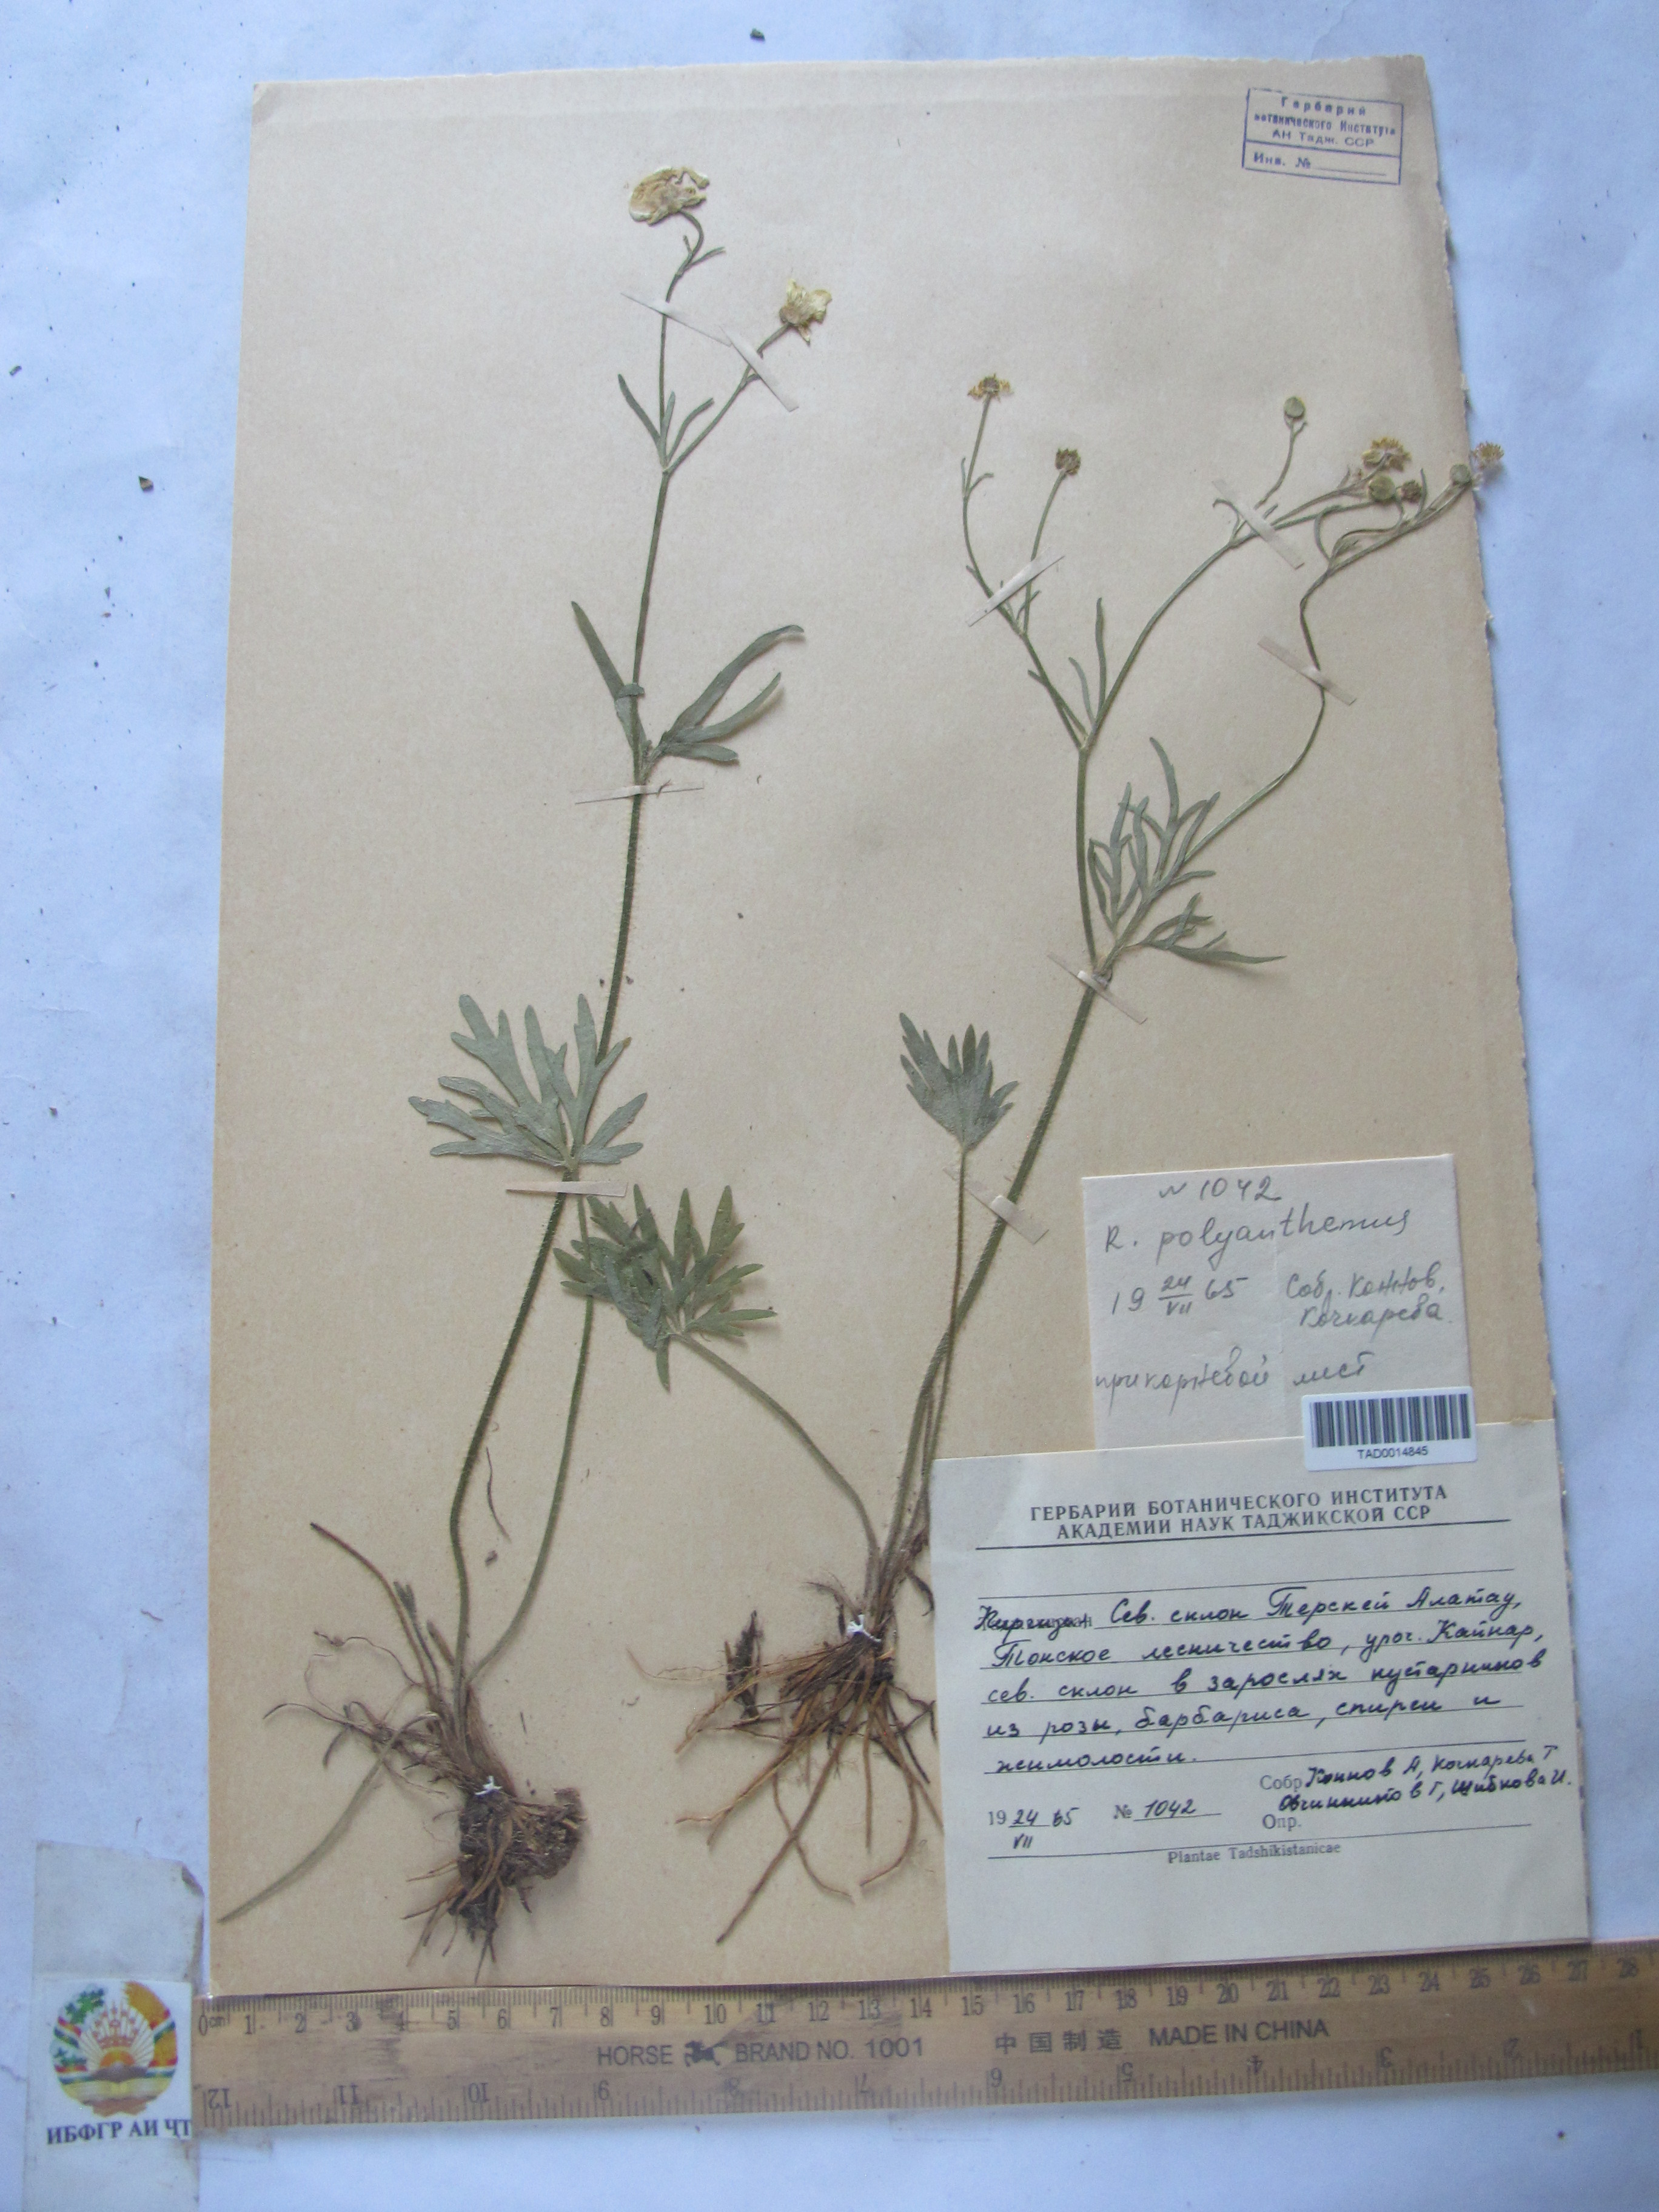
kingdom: Plantae
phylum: Tracheophyta
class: Magnoliopsida
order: Ranunculales
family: Ranunculaceae
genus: Ranunculus
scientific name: Ranunculus polyanthemos
